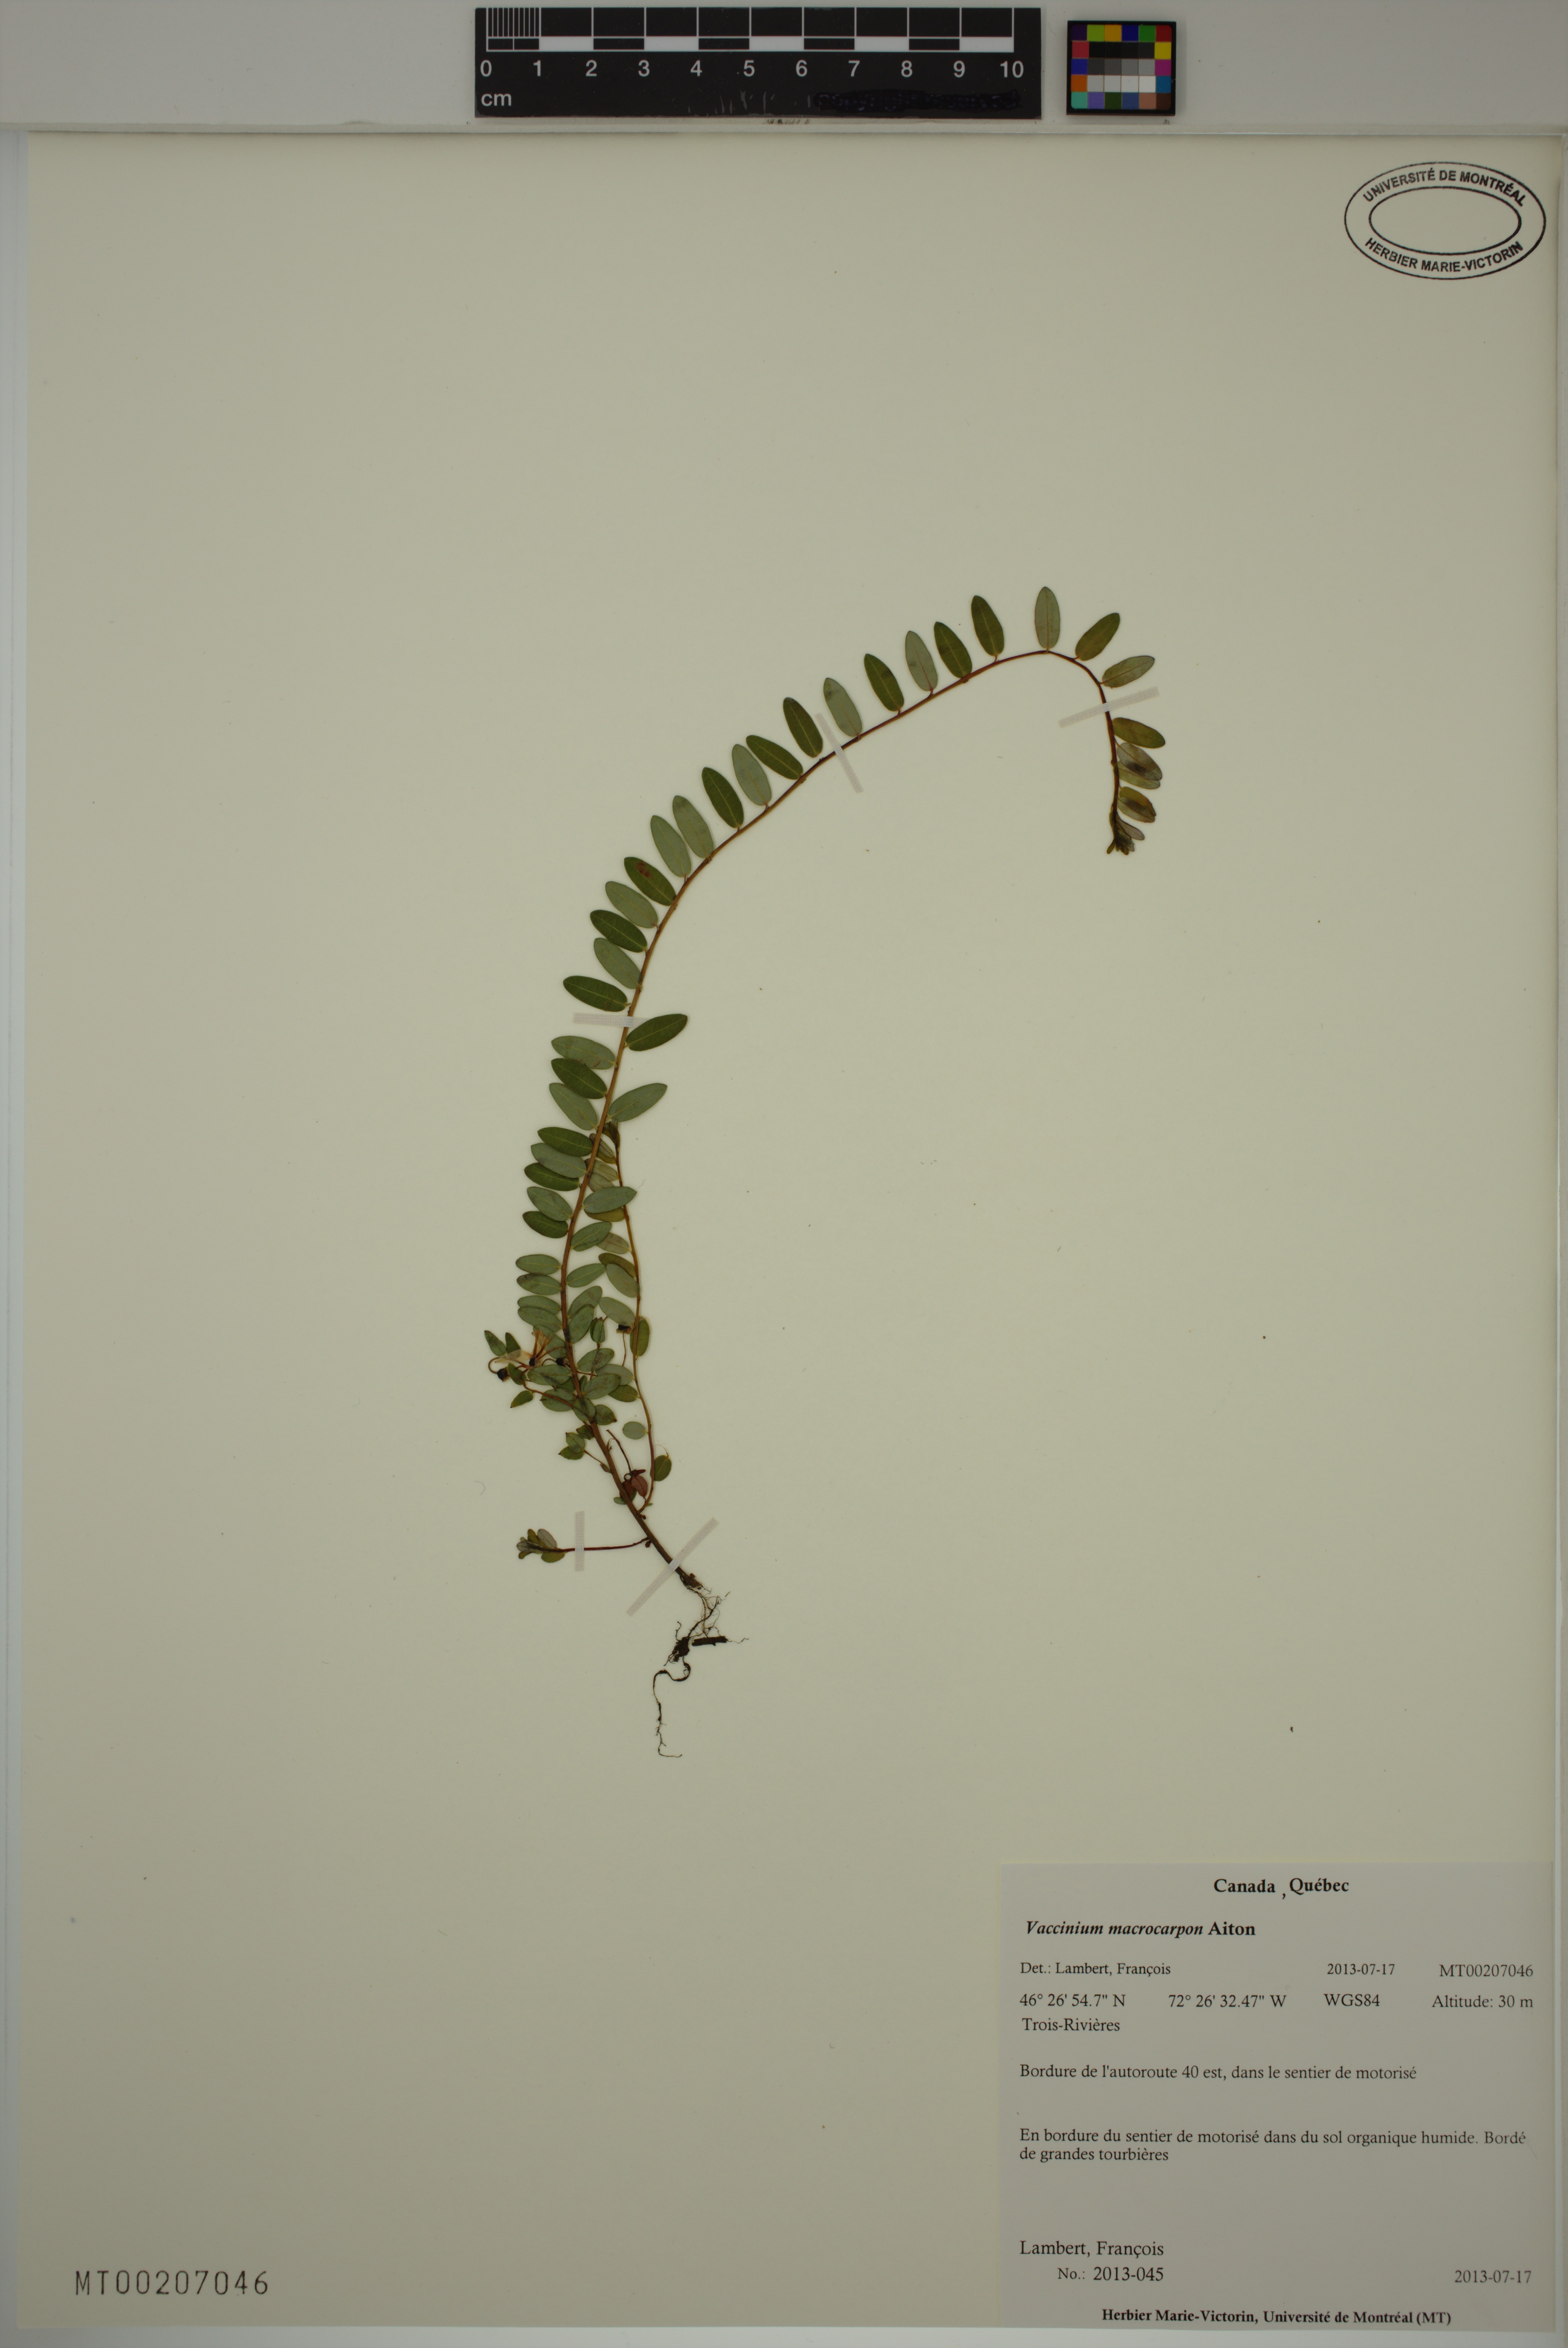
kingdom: Plantae
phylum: Tracheophyta
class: Magnoliopsida
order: Ericales
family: Ericaceae
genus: Vaccinium
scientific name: Vaccinium macrocarpon
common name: American cranberry
